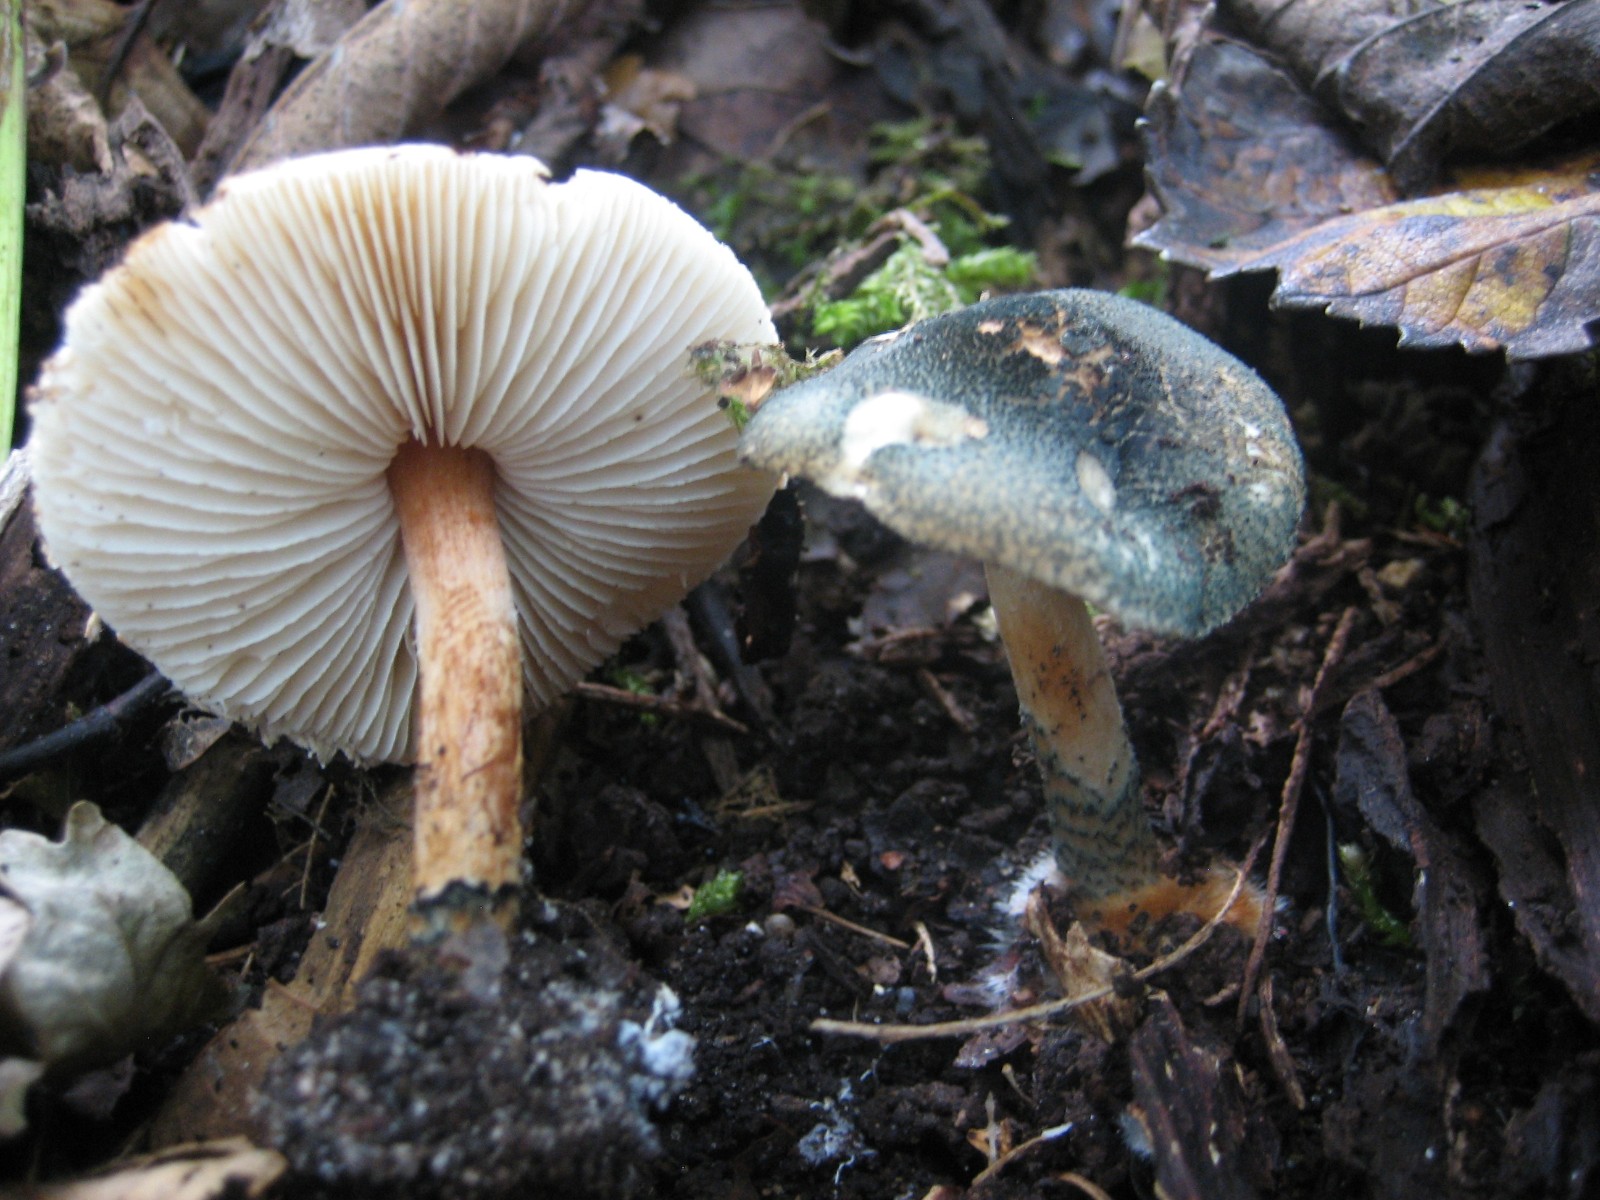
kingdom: Fungi
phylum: Basidiomycota
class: Agaricomycetes
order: Agaricales
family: Agaricaceae
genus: Lepiota
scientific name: Lepiota grangei
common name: grønskællet parasolhat
